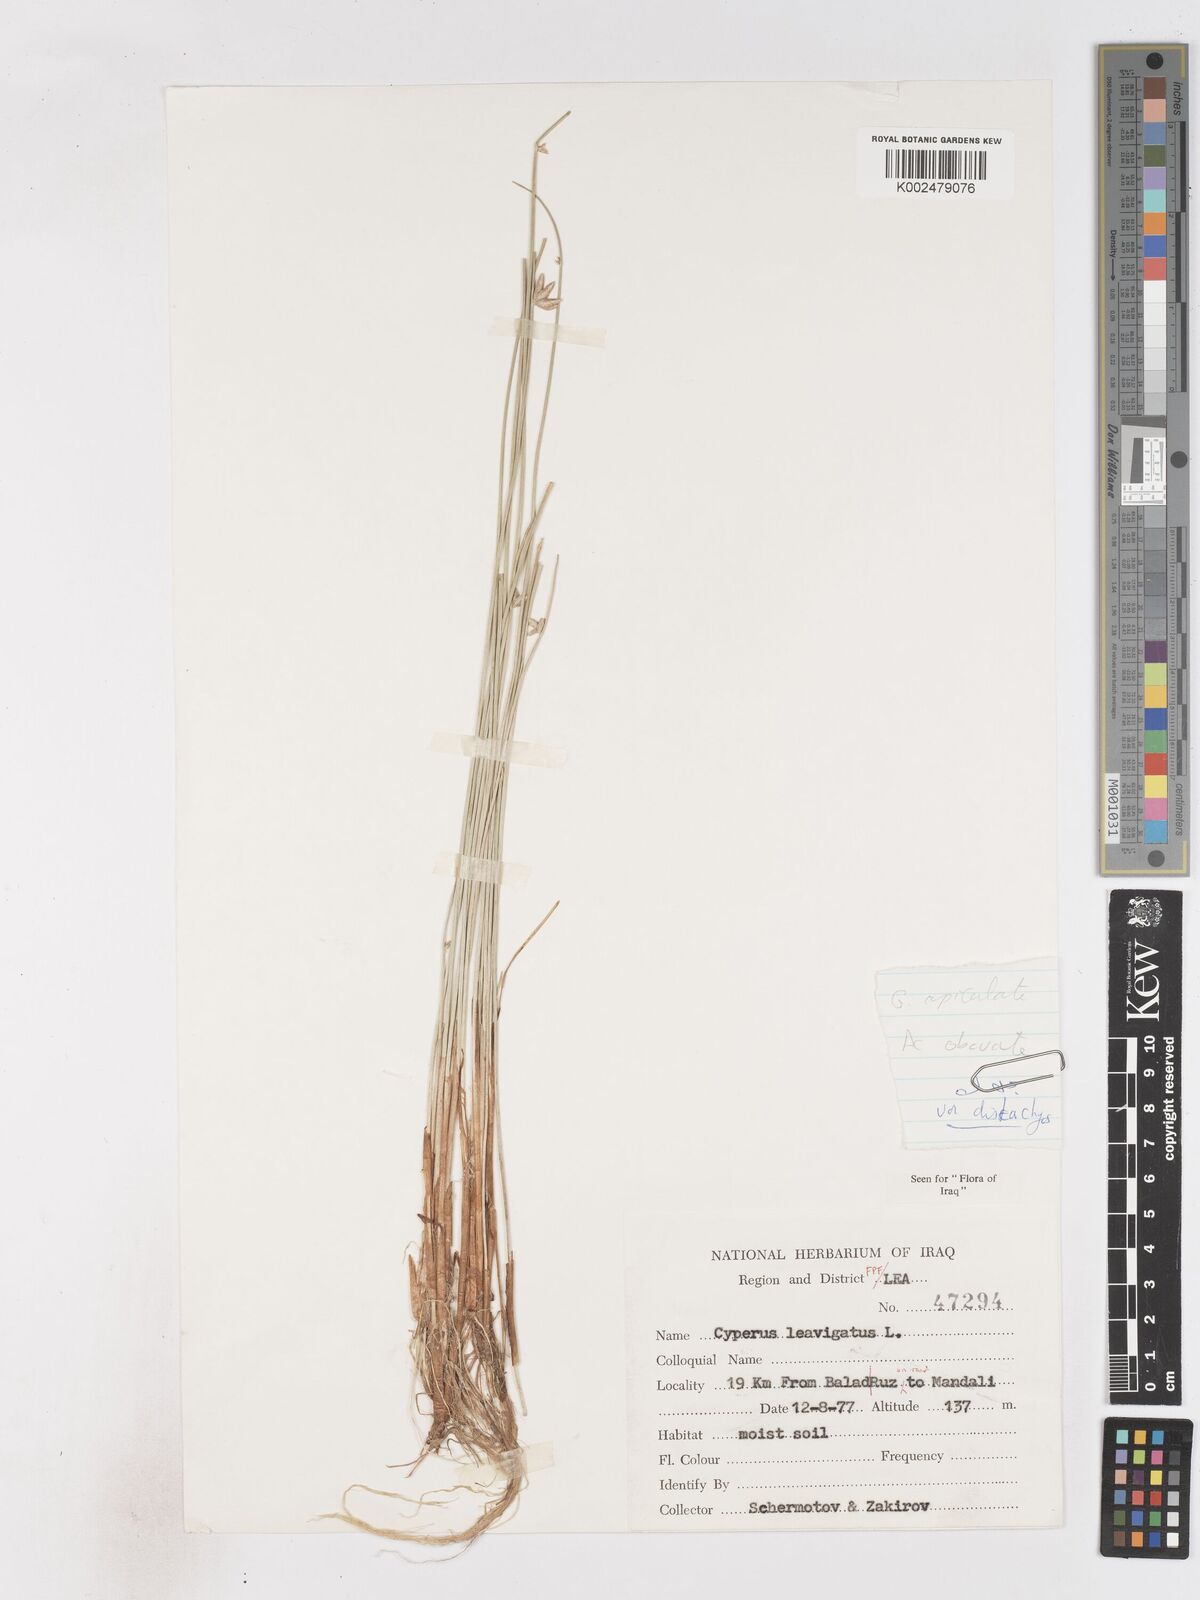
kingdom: Plantae
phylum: Tracheophyta
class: Liliopsida
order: Poales
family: Cyperaceae
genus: Cyperus
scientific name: Cyperus laevigatus
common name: Smooth flat sedge
